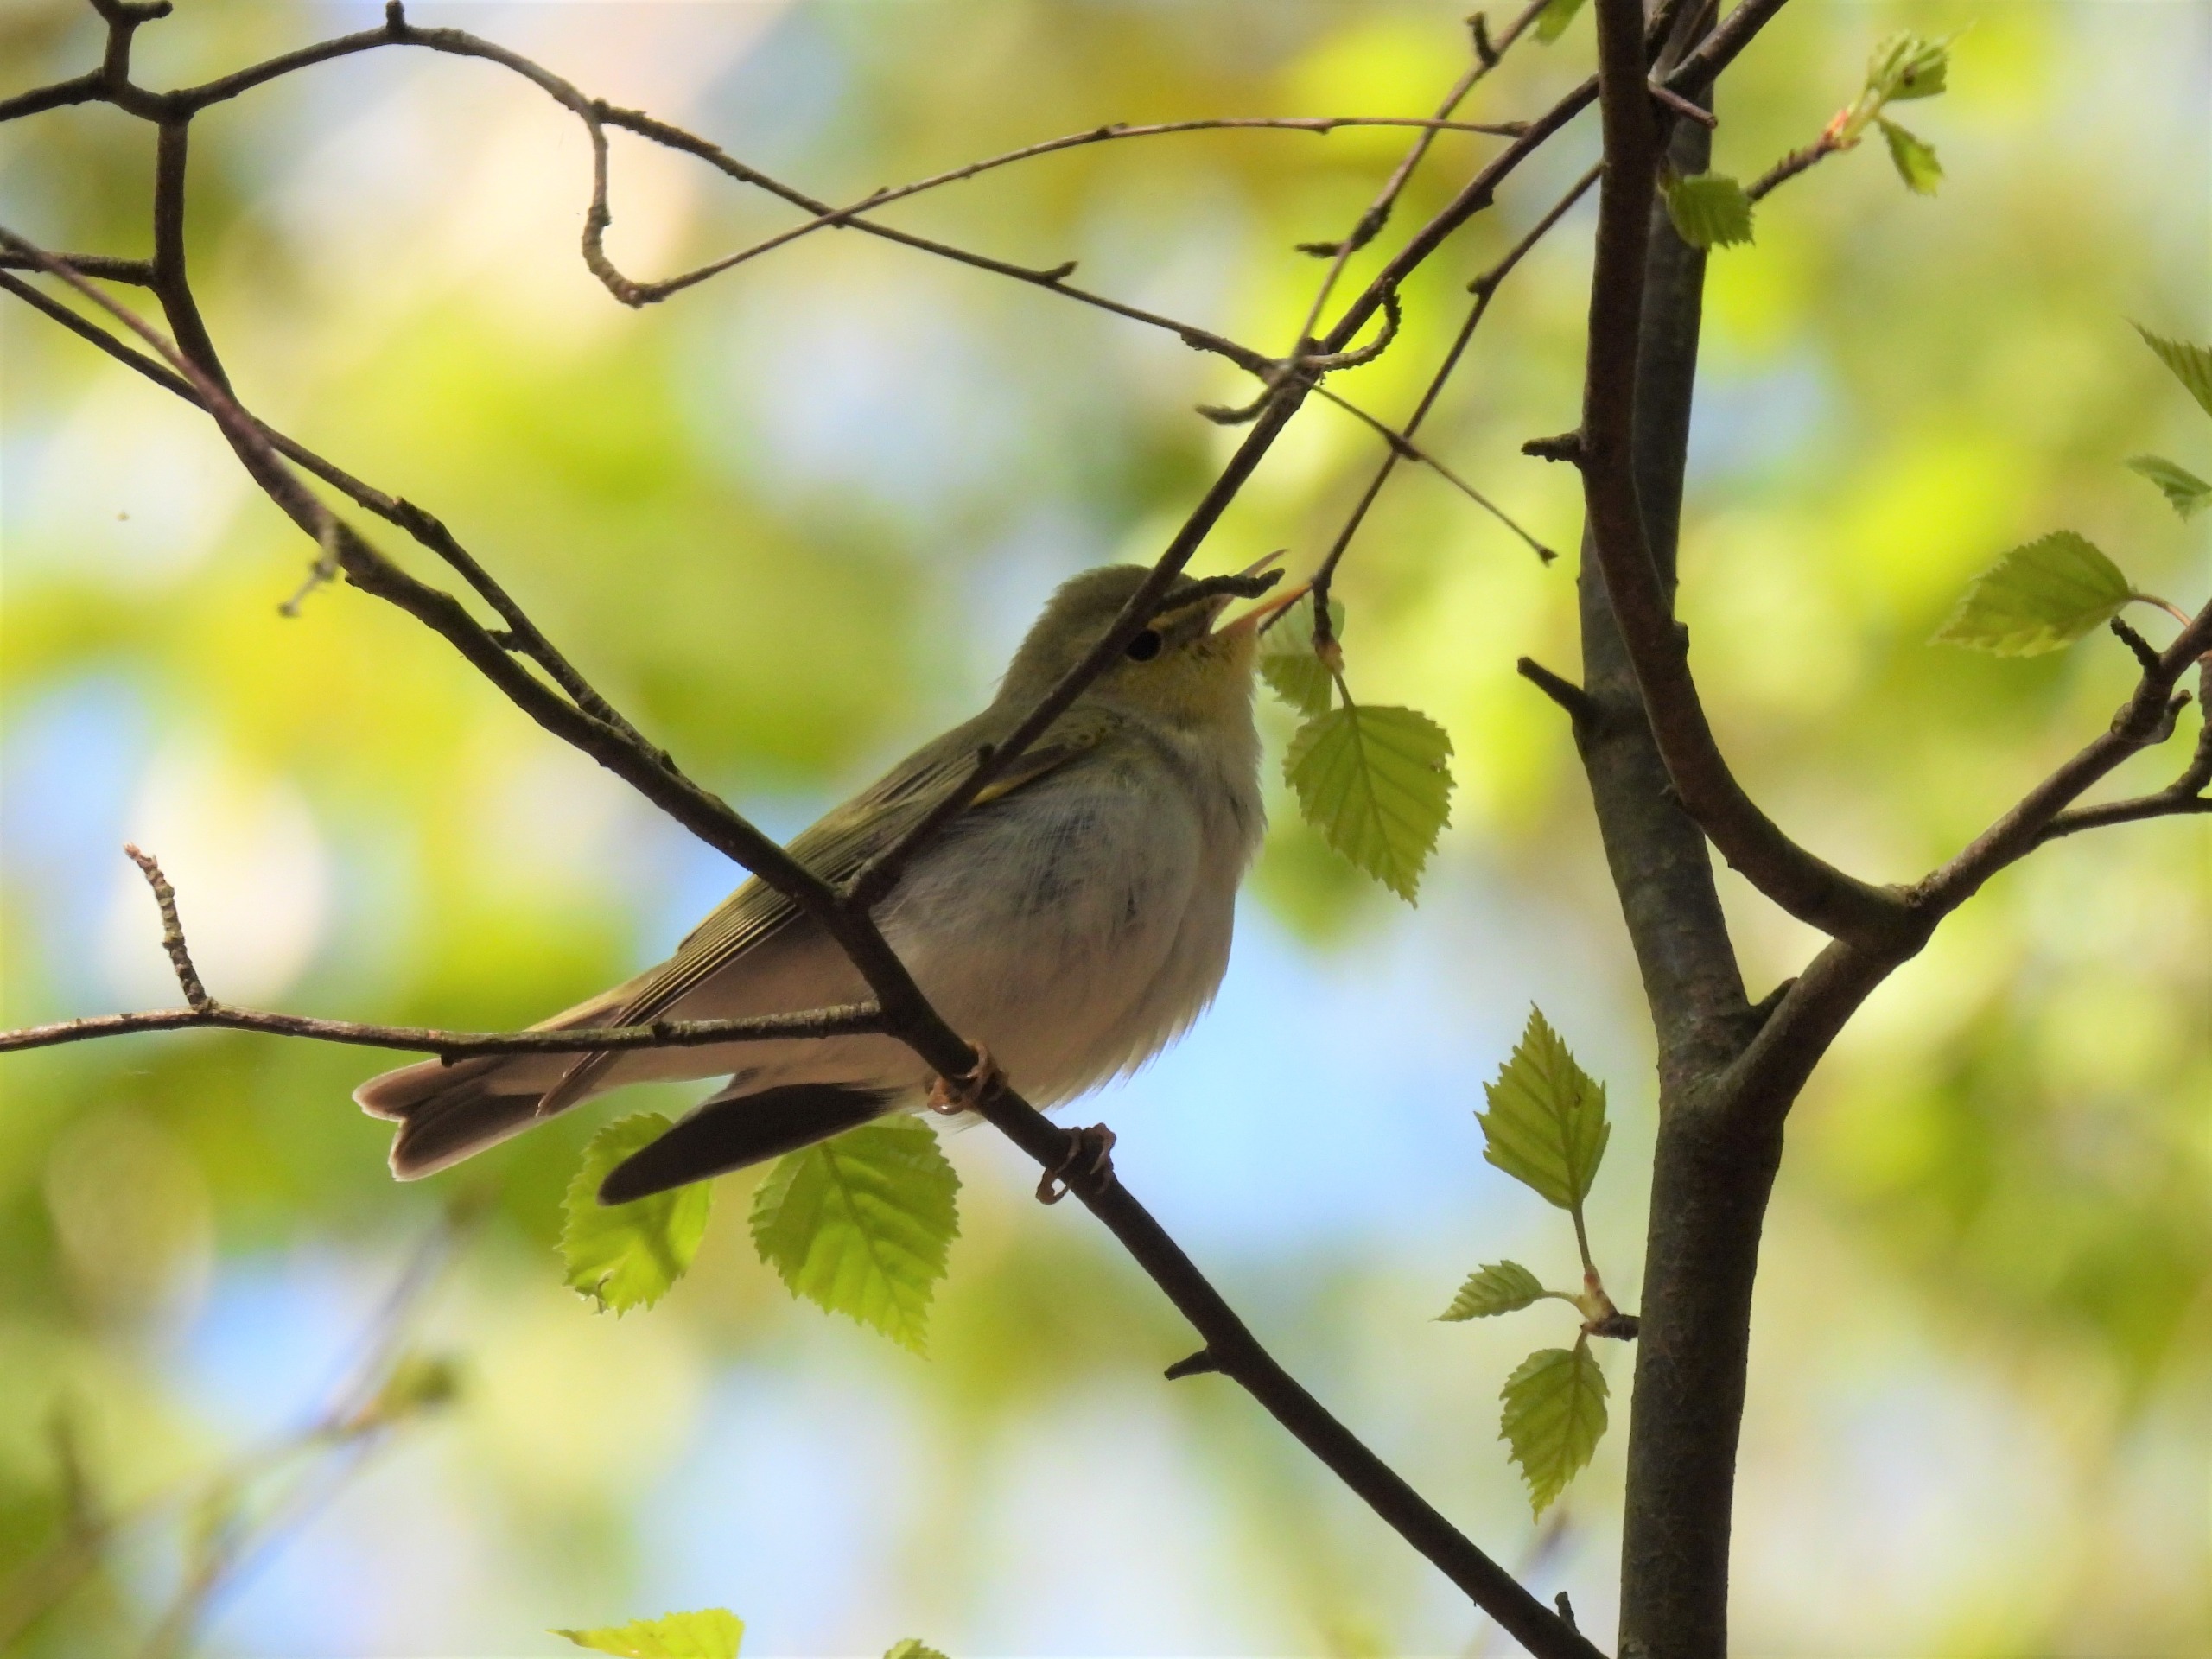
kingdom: Animalia
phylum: Chordata
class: Aves
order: Passeriformes
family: Phylloscopidae
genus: Phylloscopus
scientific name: Phylloscopus sibillatrix
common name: Skovsanger
